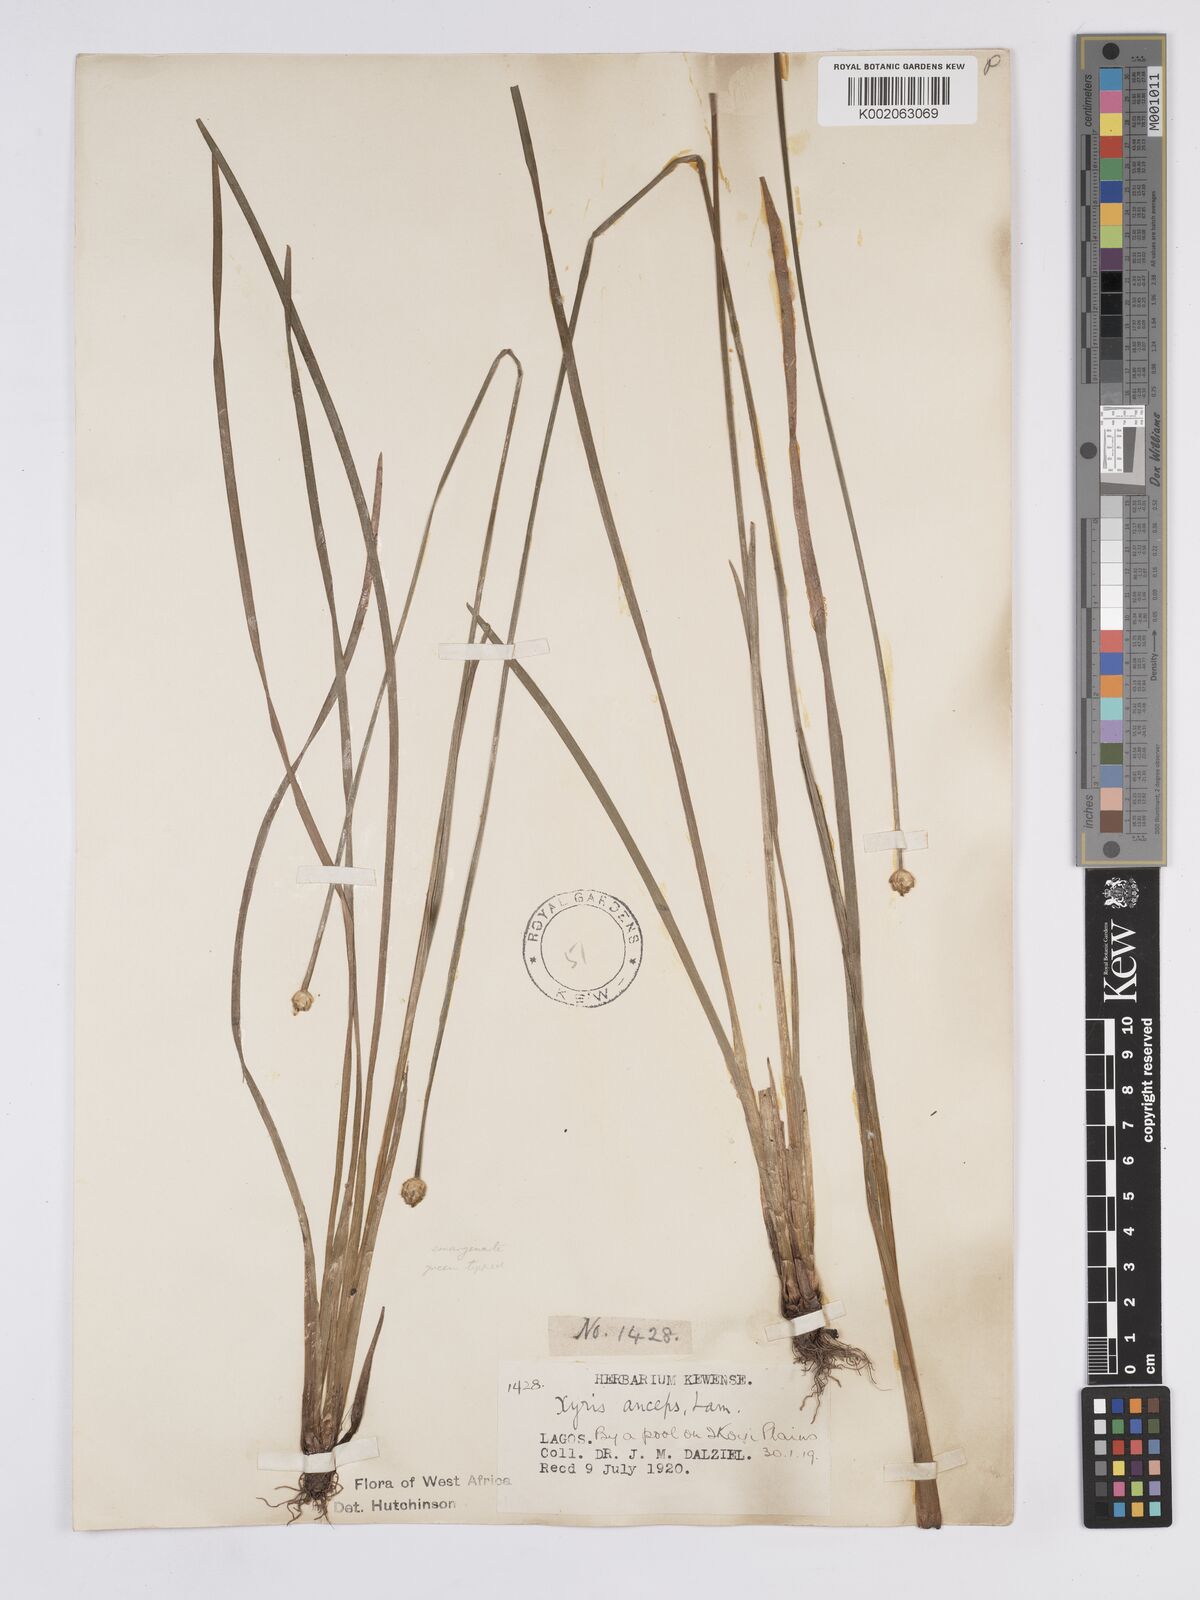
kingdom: Plantae
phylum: Tracheophyta
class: Liliopsida
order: Poales
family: Xyridaceae
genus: Xyris
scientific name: Xyris anceps
